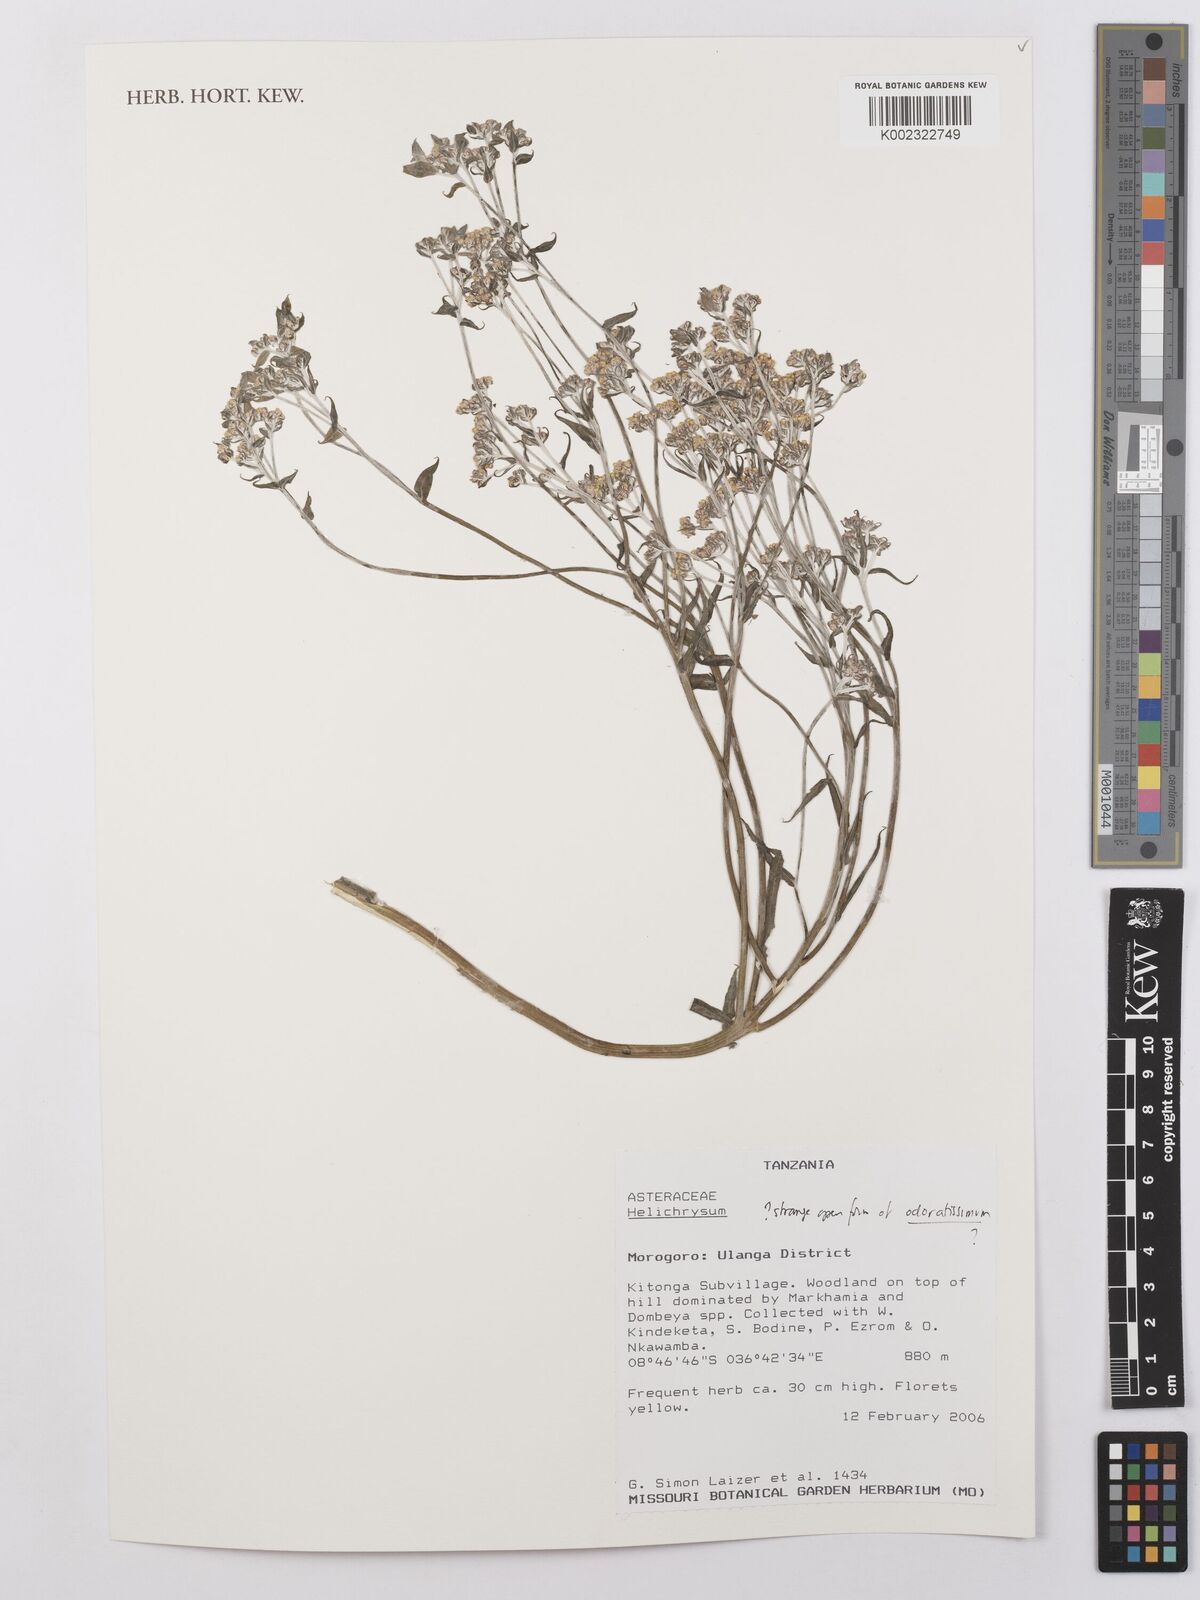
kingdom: Plantae
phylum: Tracheophyta
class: Magnoliopsida
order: Asterales
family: Asteraceae
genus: Helichrysum
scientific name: Helichrysum odoratissimum
